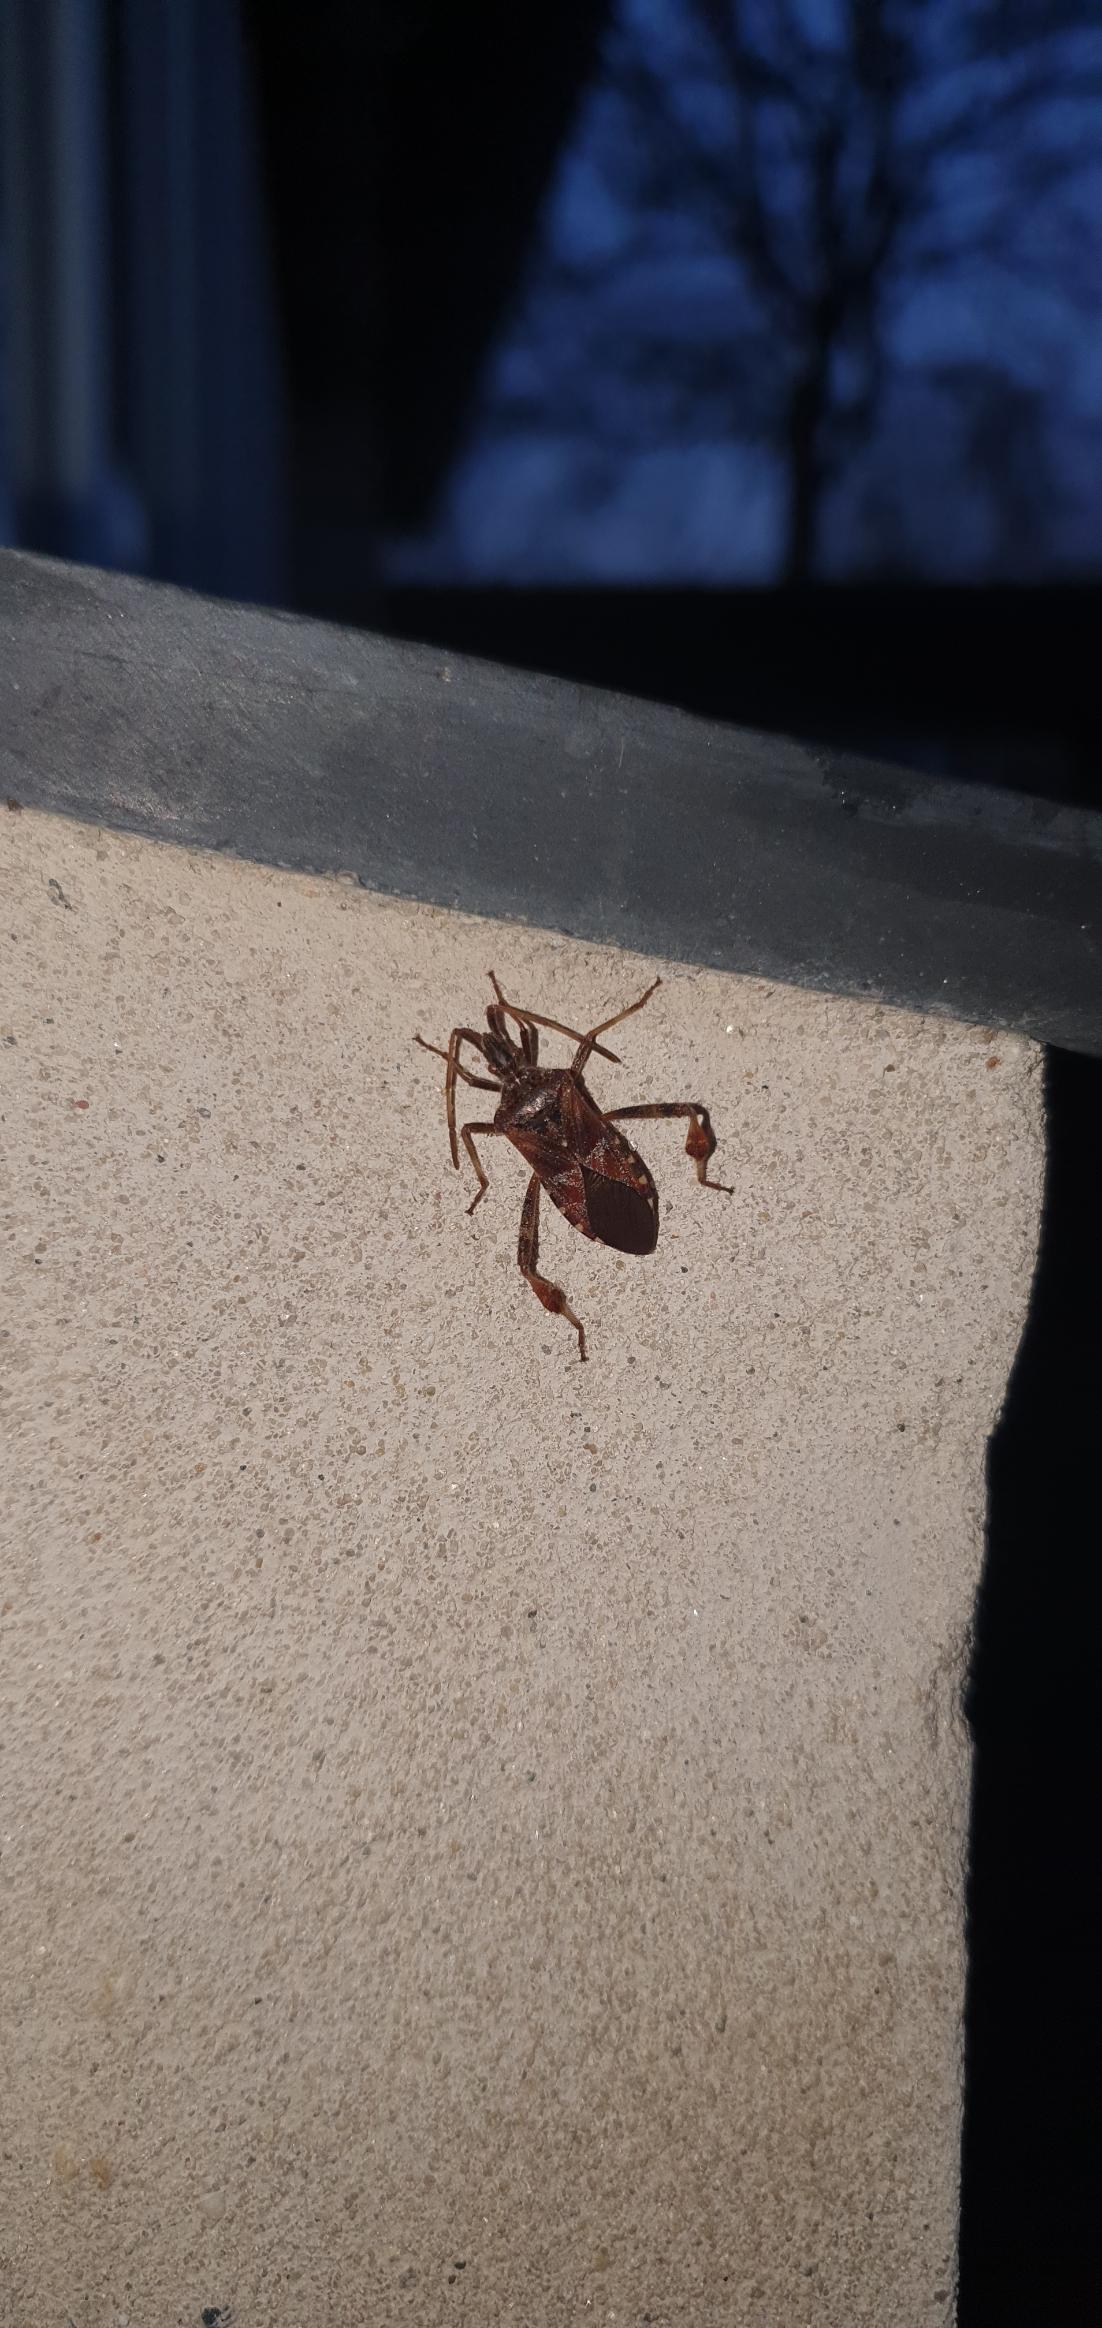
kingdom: Animalia
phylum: Arthropoda
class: Insecta
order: Hemiptera
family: Coreidae
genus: Leptoglossus
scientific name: Leptoglossus occidentalis
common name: Amerikansk fyrretæge
